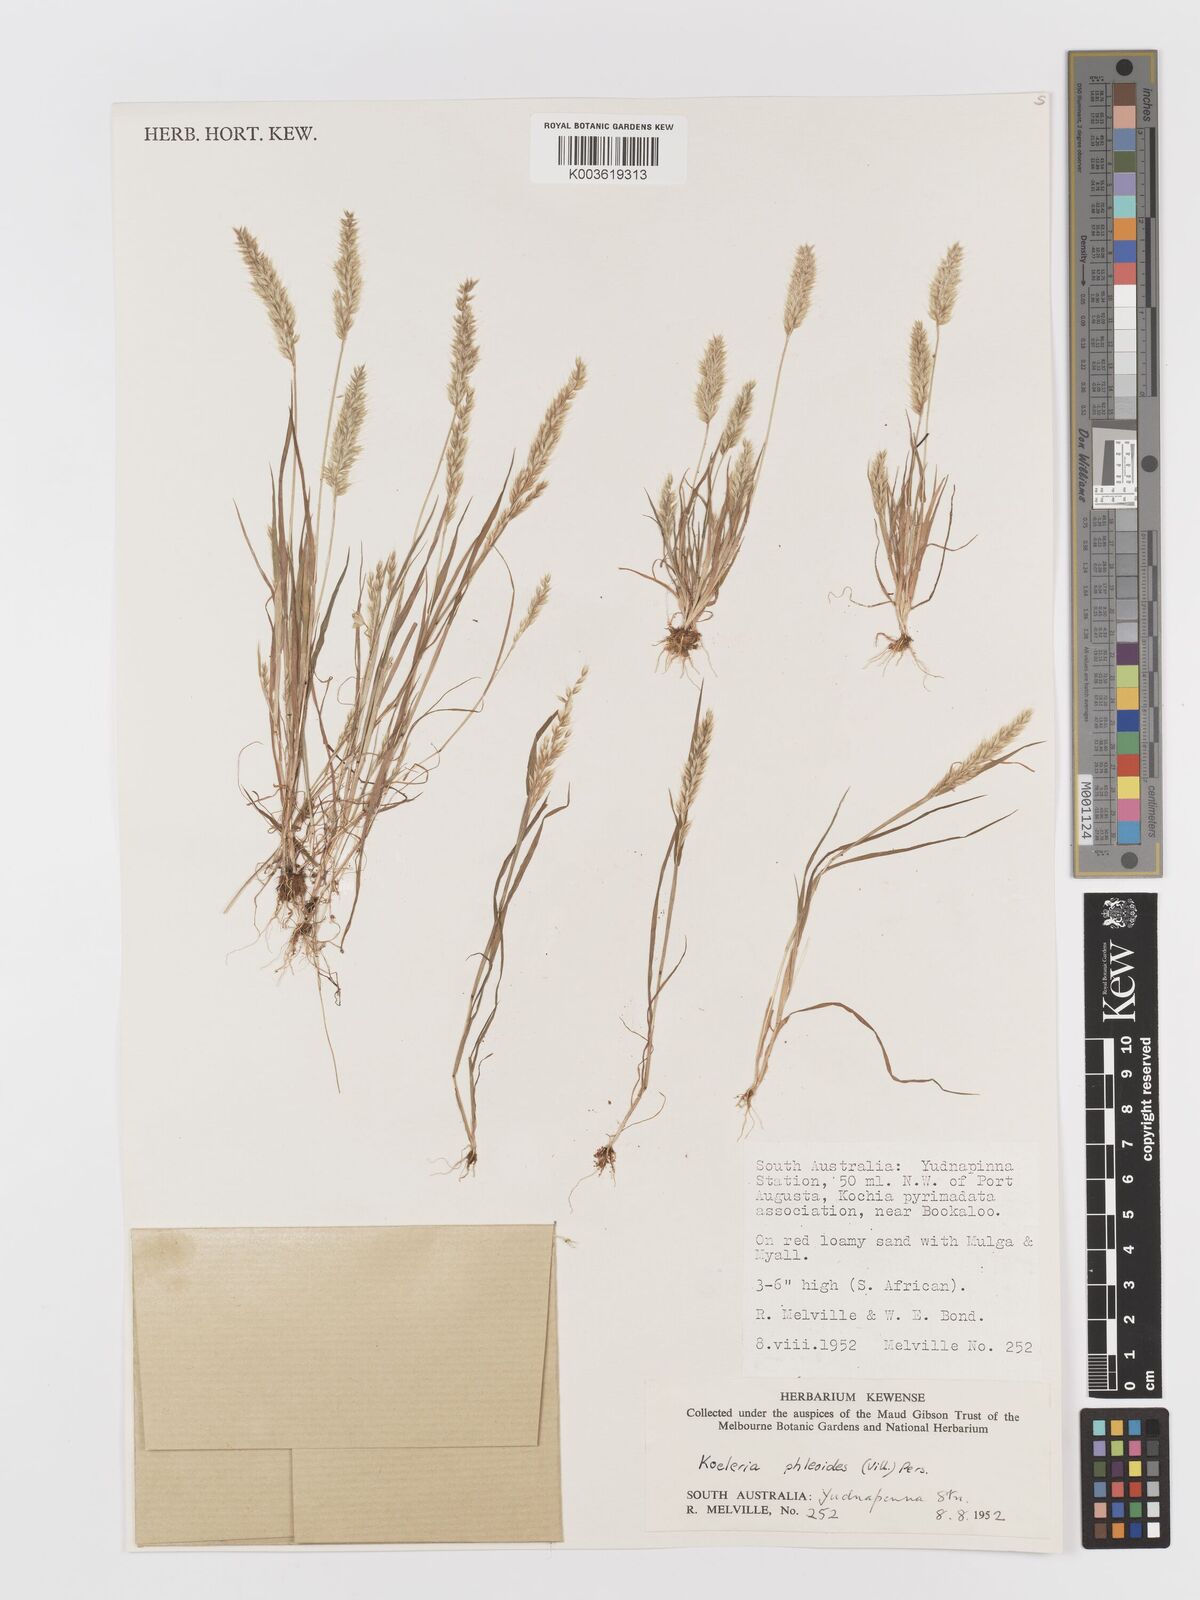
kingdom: Plantae
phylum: Tracheophyta
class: Liliopsida
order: Poales
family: Poaceae
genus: Rostraria
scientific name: Rostraria cristata
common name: Mediterranean hair-grass
